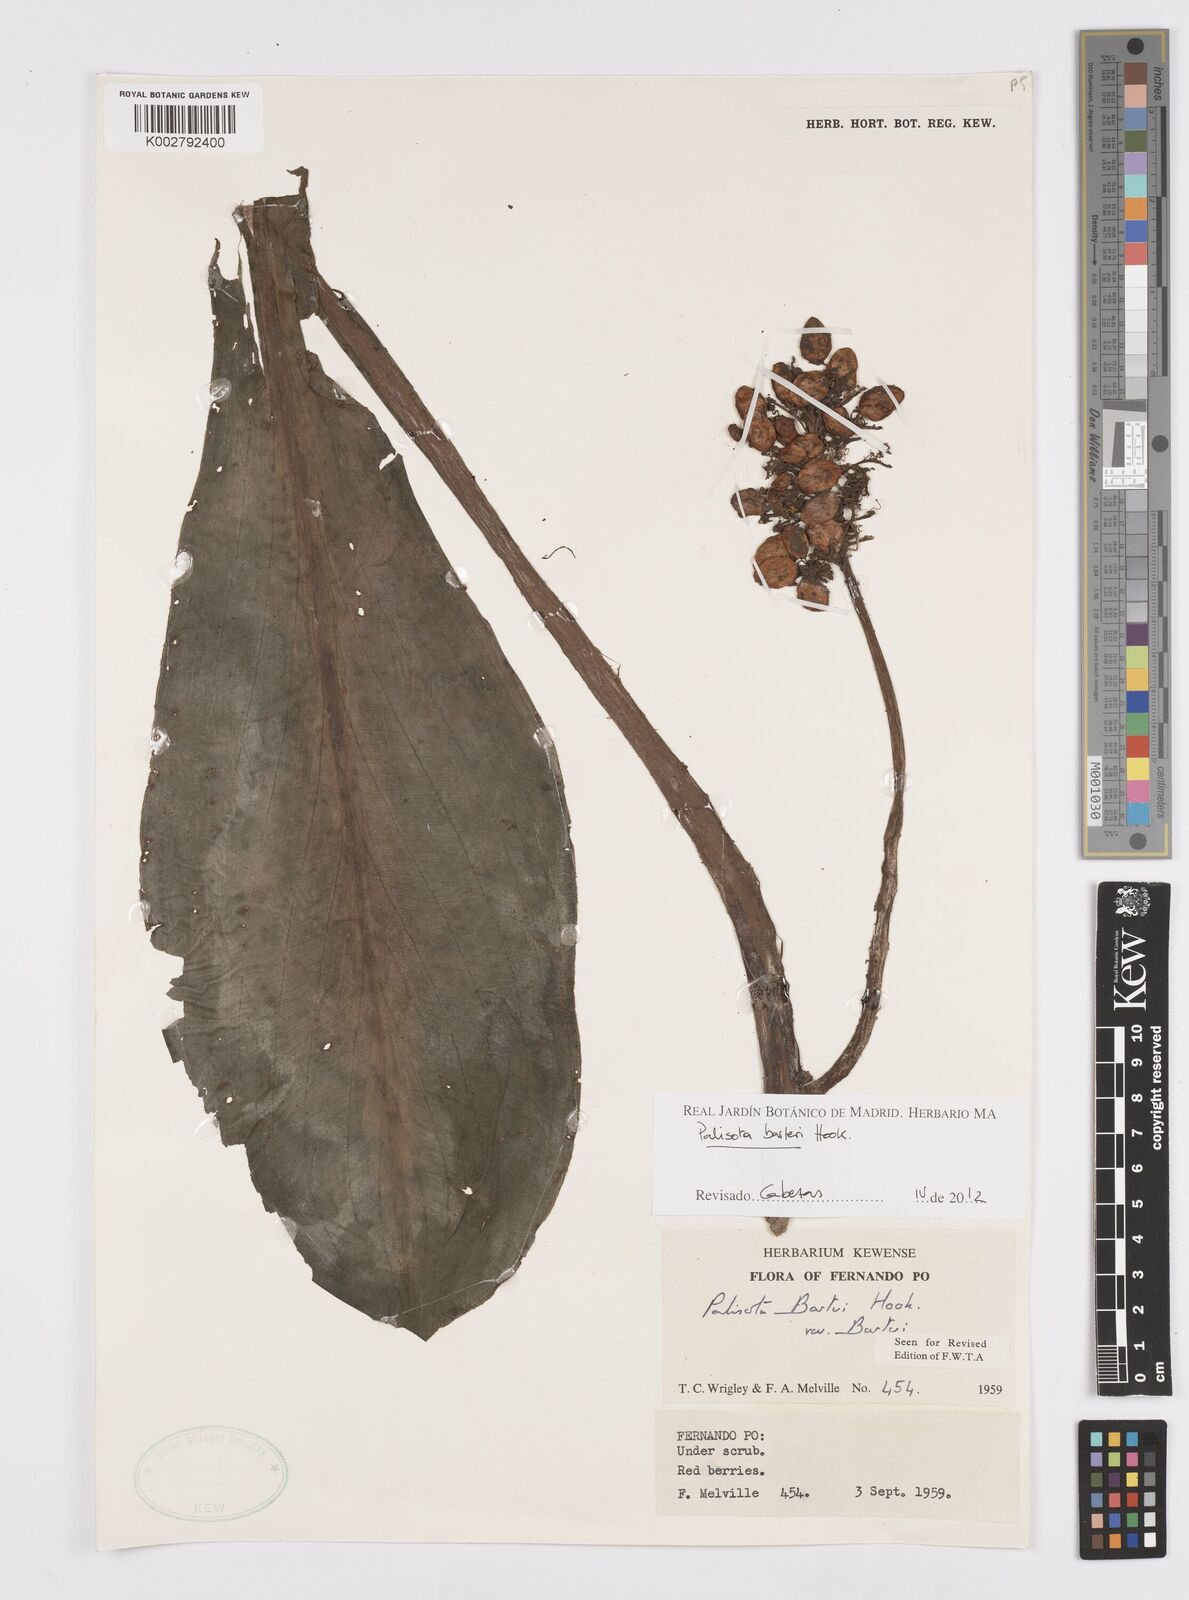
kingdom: Plantae
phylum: Tracheophyta
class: Liliopsida
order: Commelinales
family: Commelinaceae
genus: Palisota
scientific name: Palisota barteri
